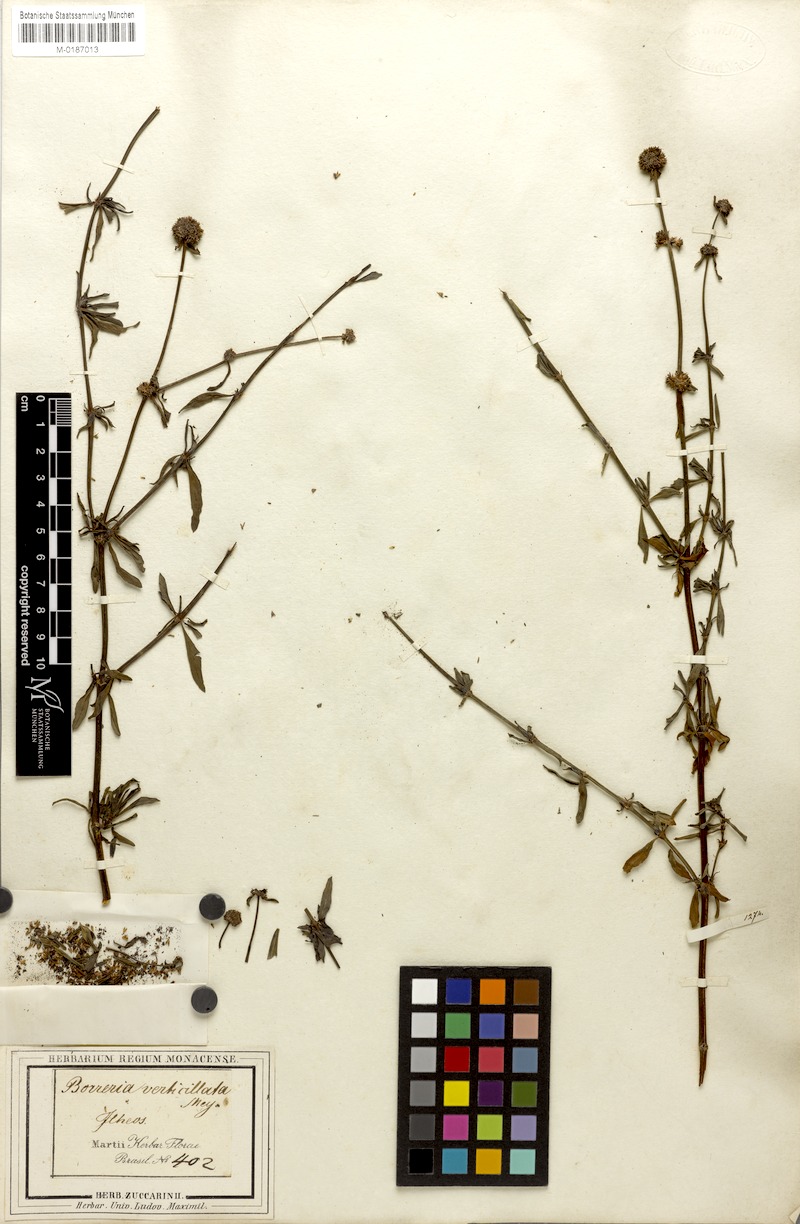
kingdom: Plantae
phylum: Tracheophyta
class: Magnoliopsida
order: Gentianales
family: Rubiaceae
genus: Spermacoce
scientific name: Spermacoce verticillata
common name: Shrubby false buttonweed
